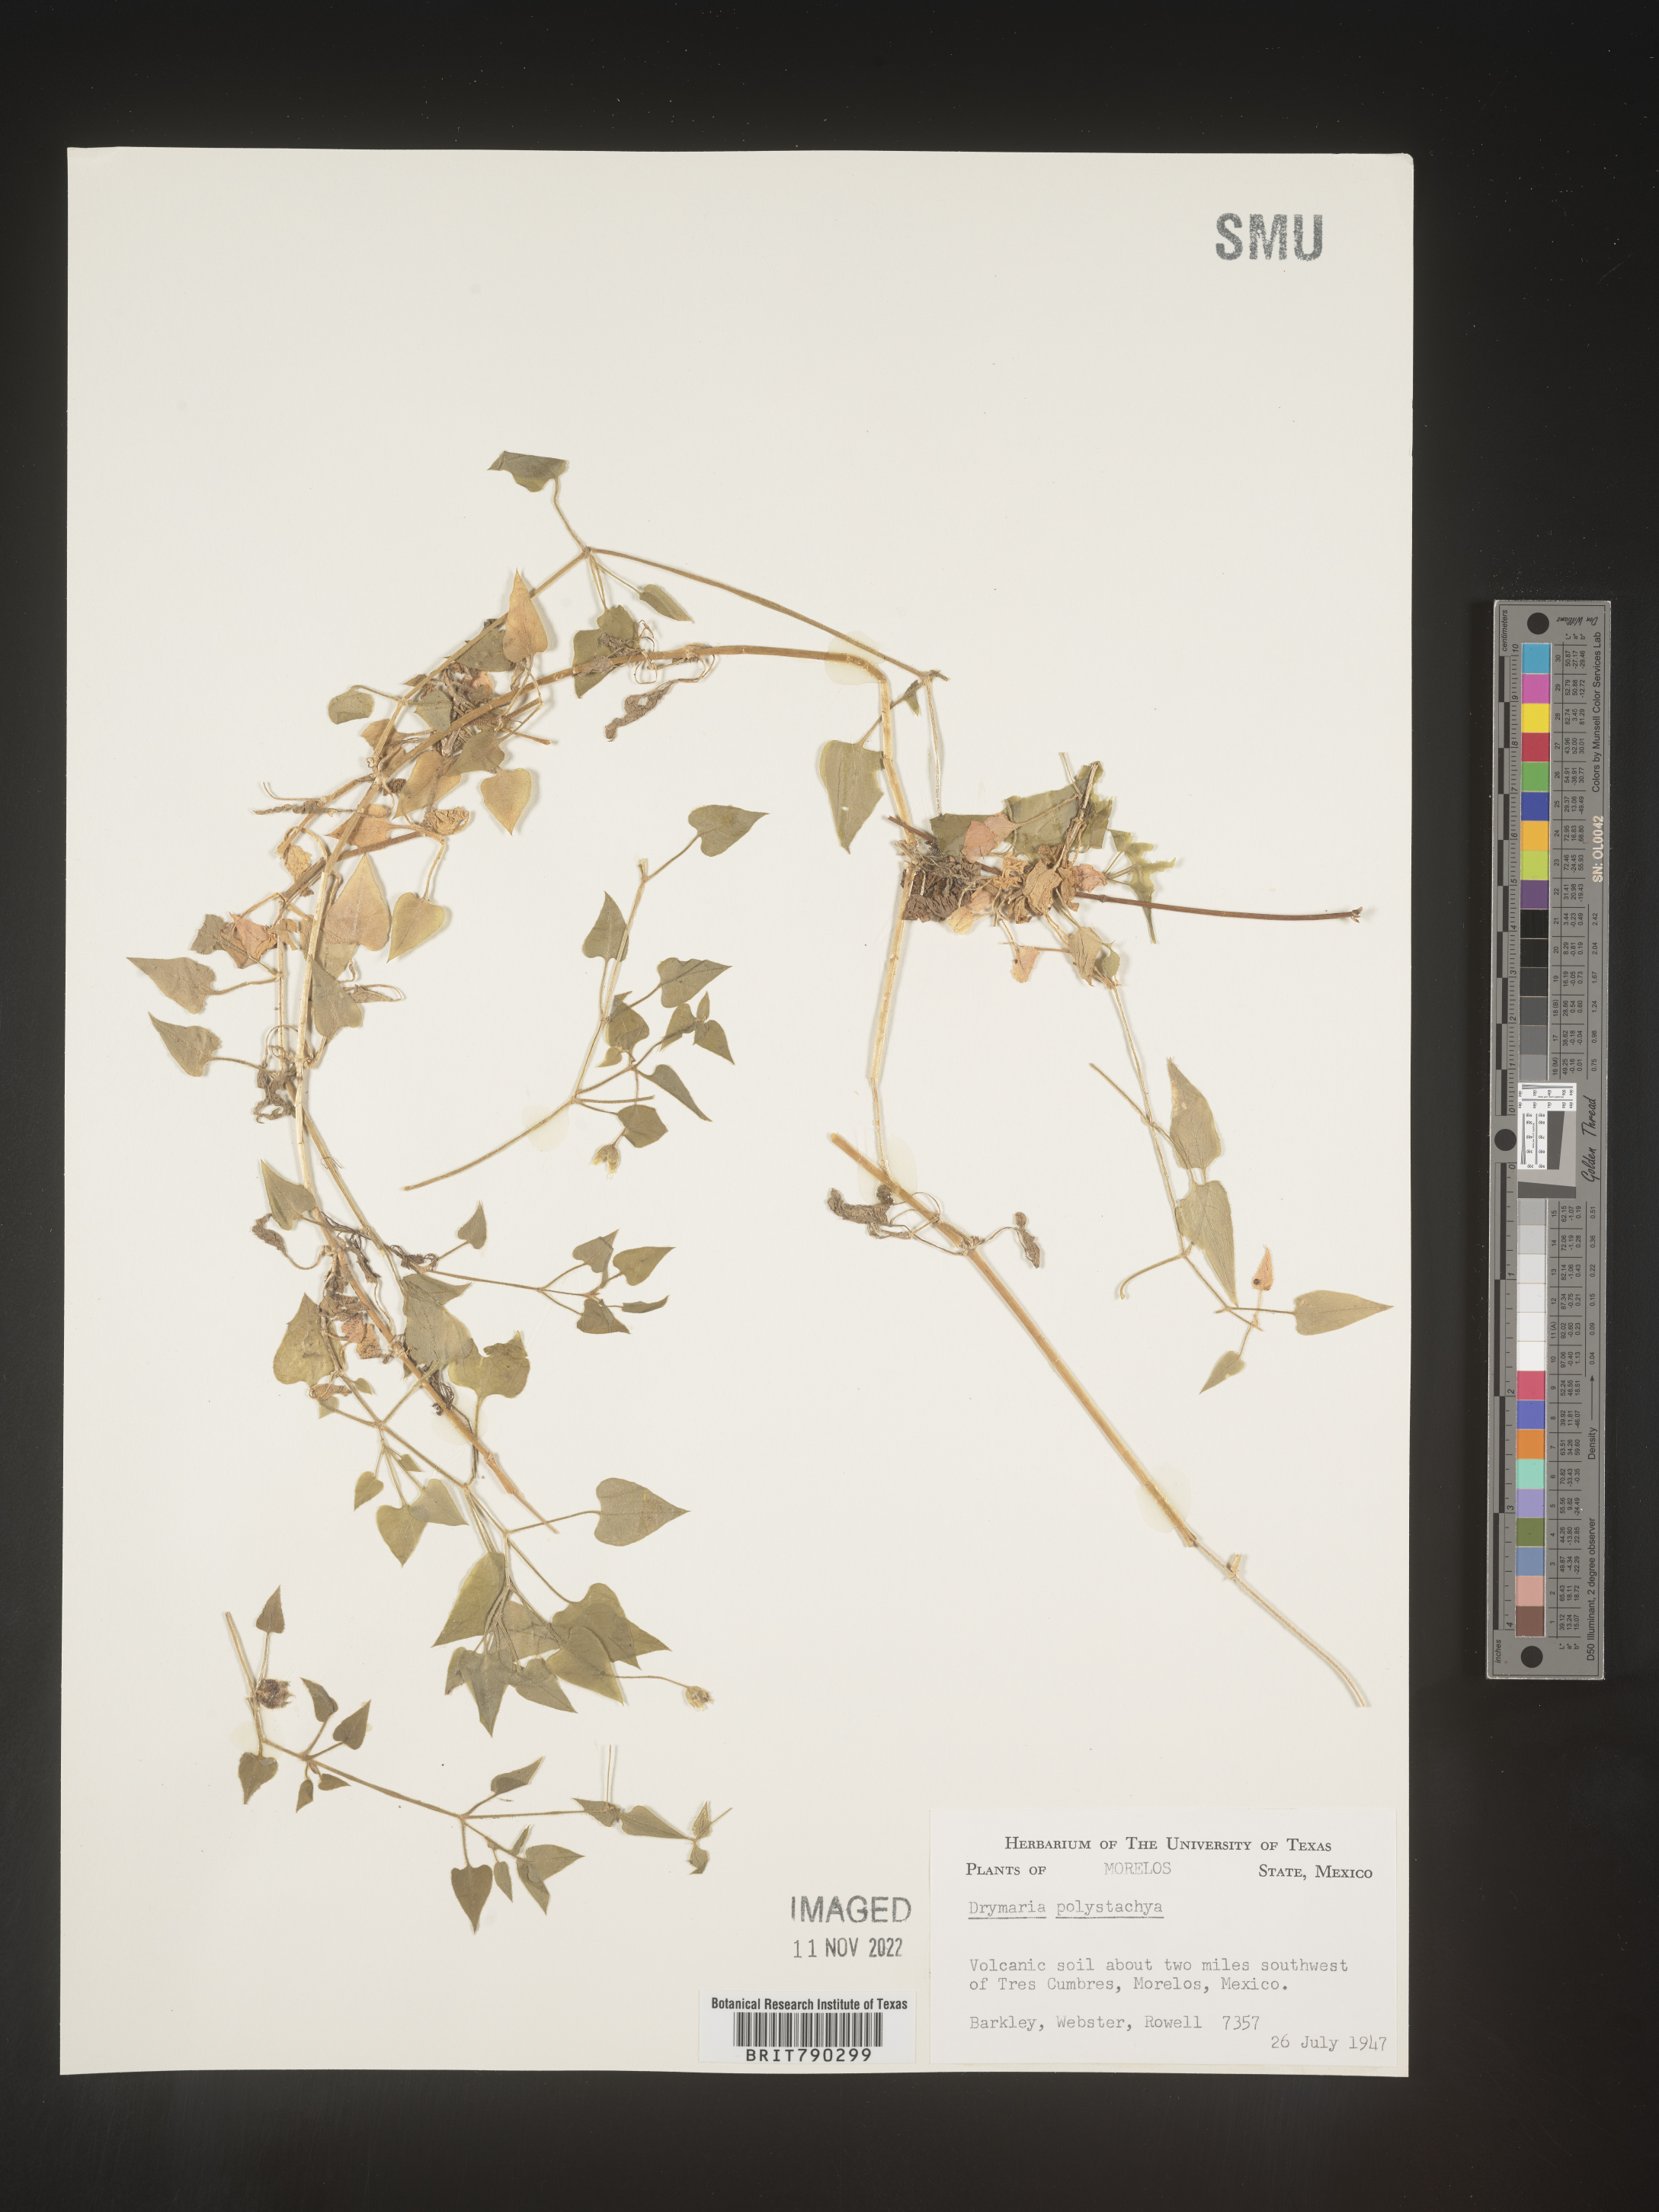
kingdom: Plantae
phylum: Tracheophyta
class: Magnoliopsida
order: Caryophyllales
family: Caryophyllaceae
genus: Drymaria
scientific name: Drymaria
